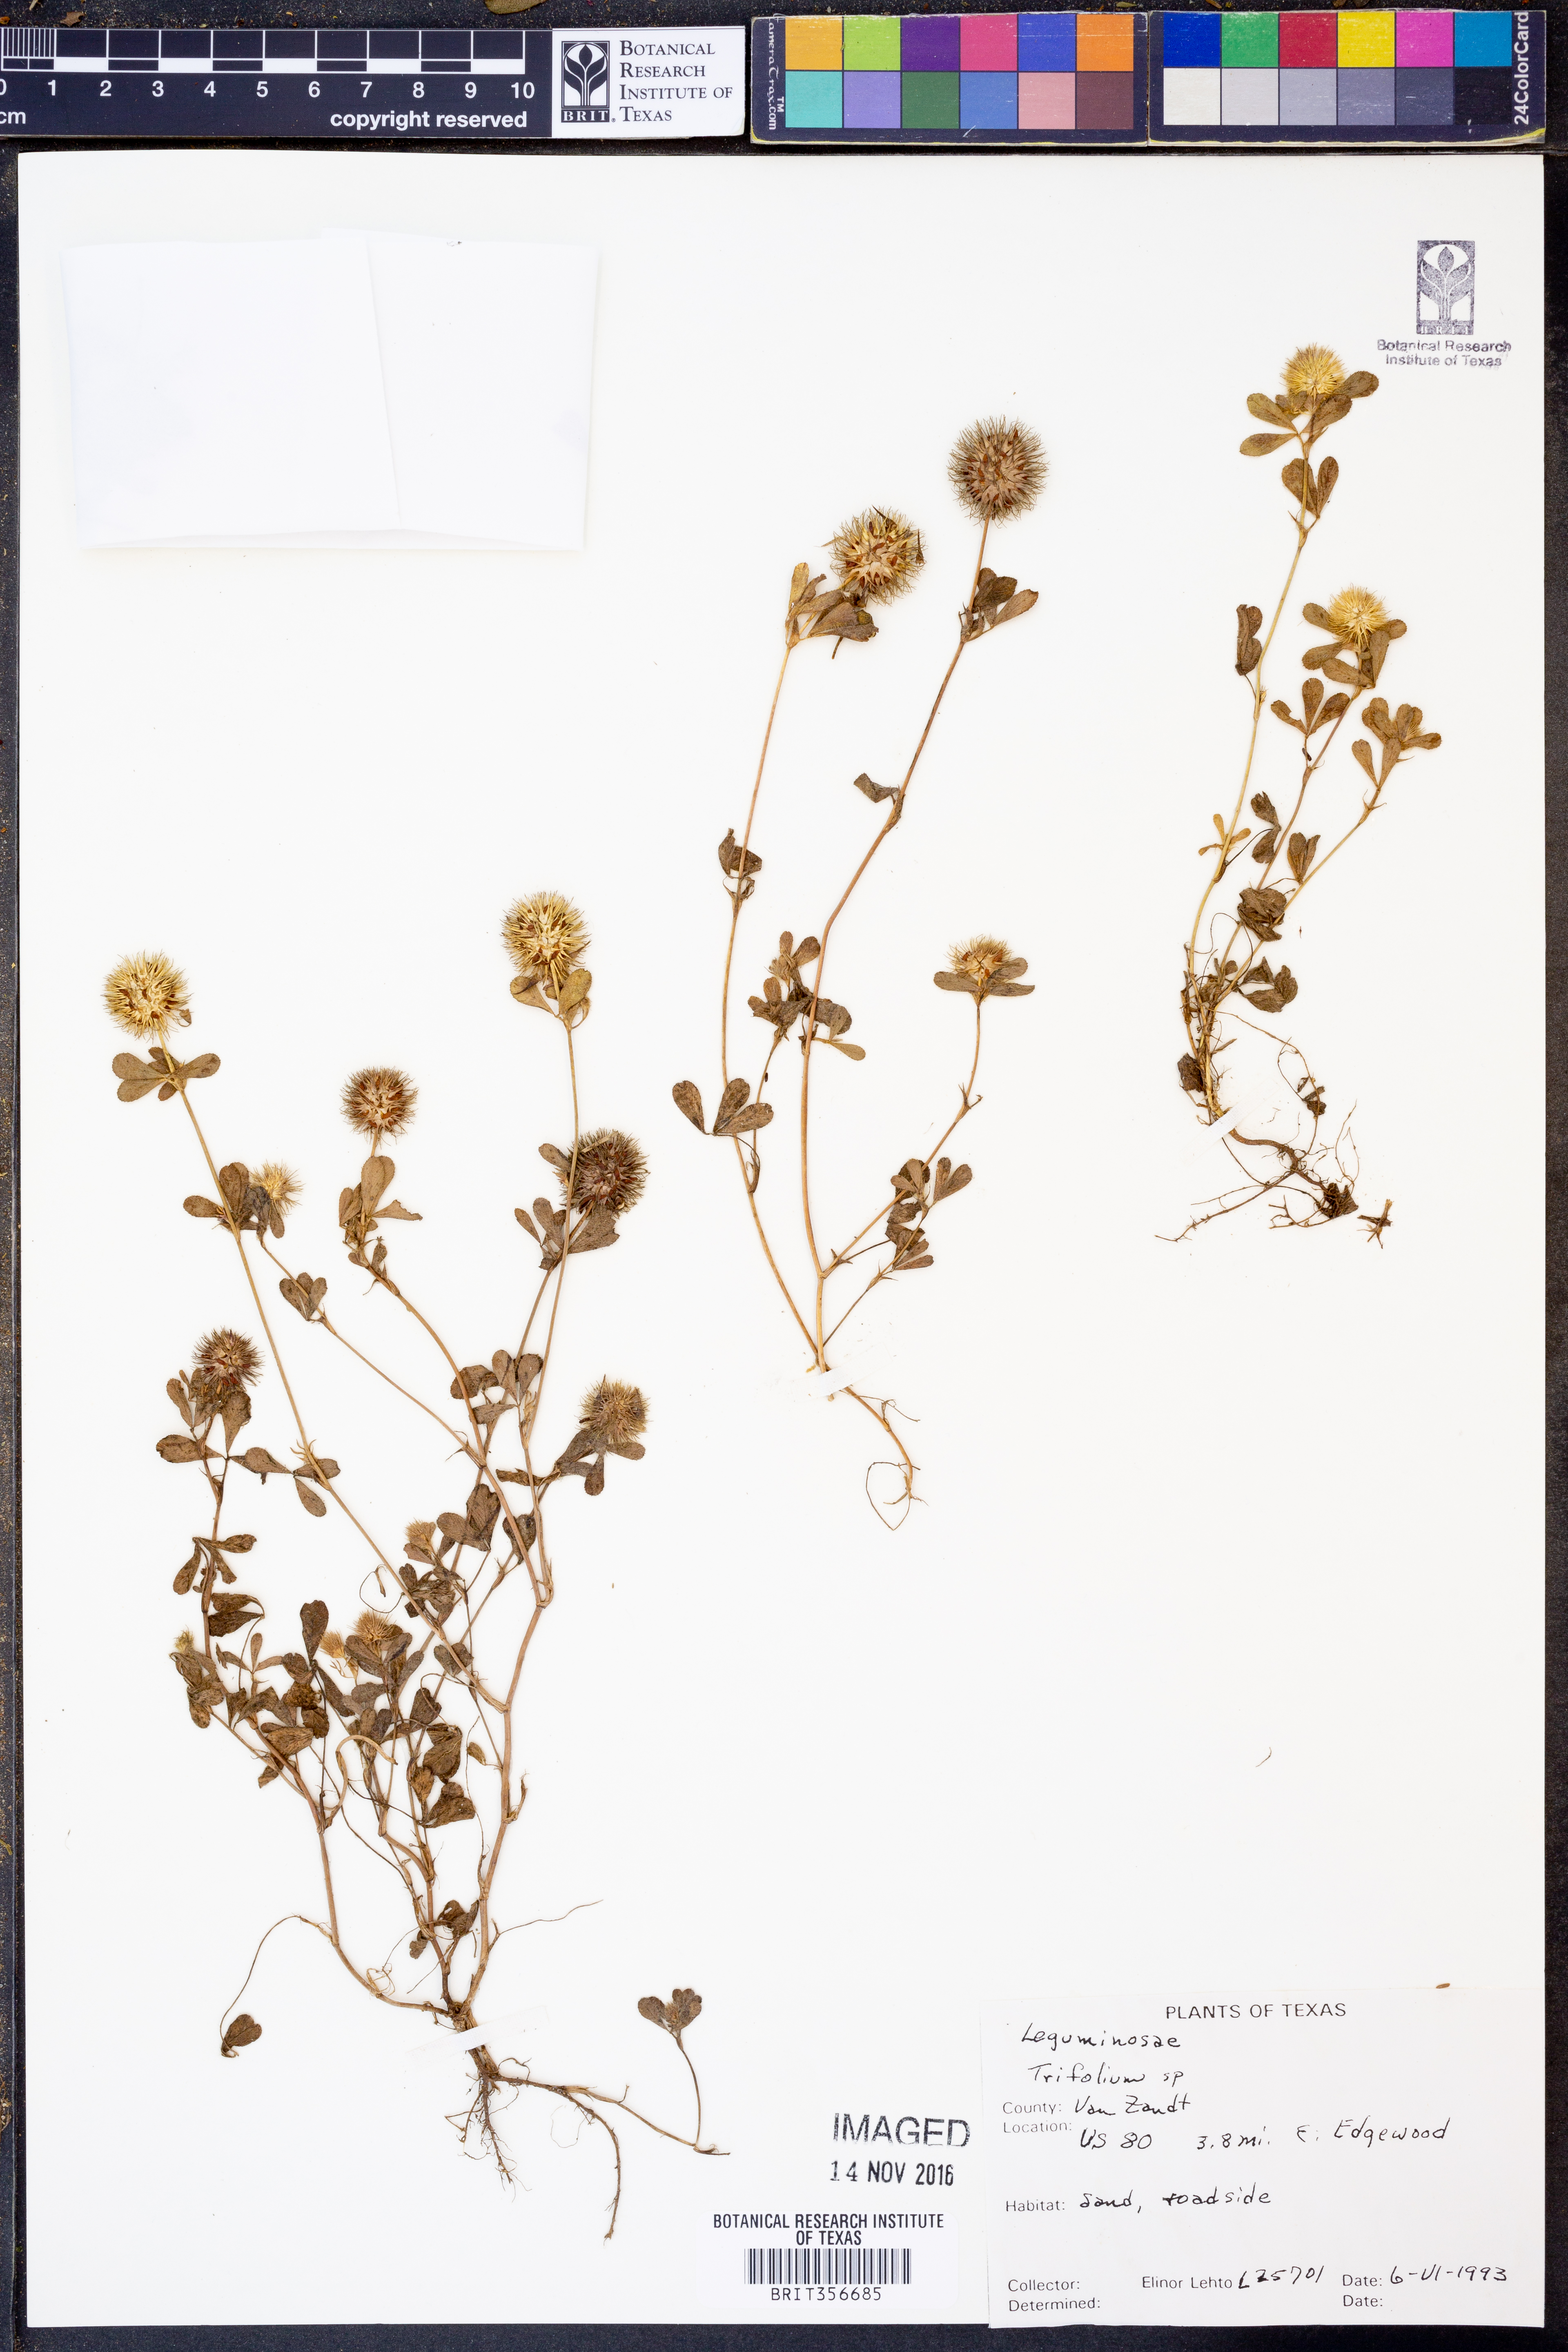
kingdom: Plantae
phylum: Tracheophyta
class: Magnoliopsida
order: Fabales
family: Fabaceae
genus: Trifolium
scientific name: Trifolium
